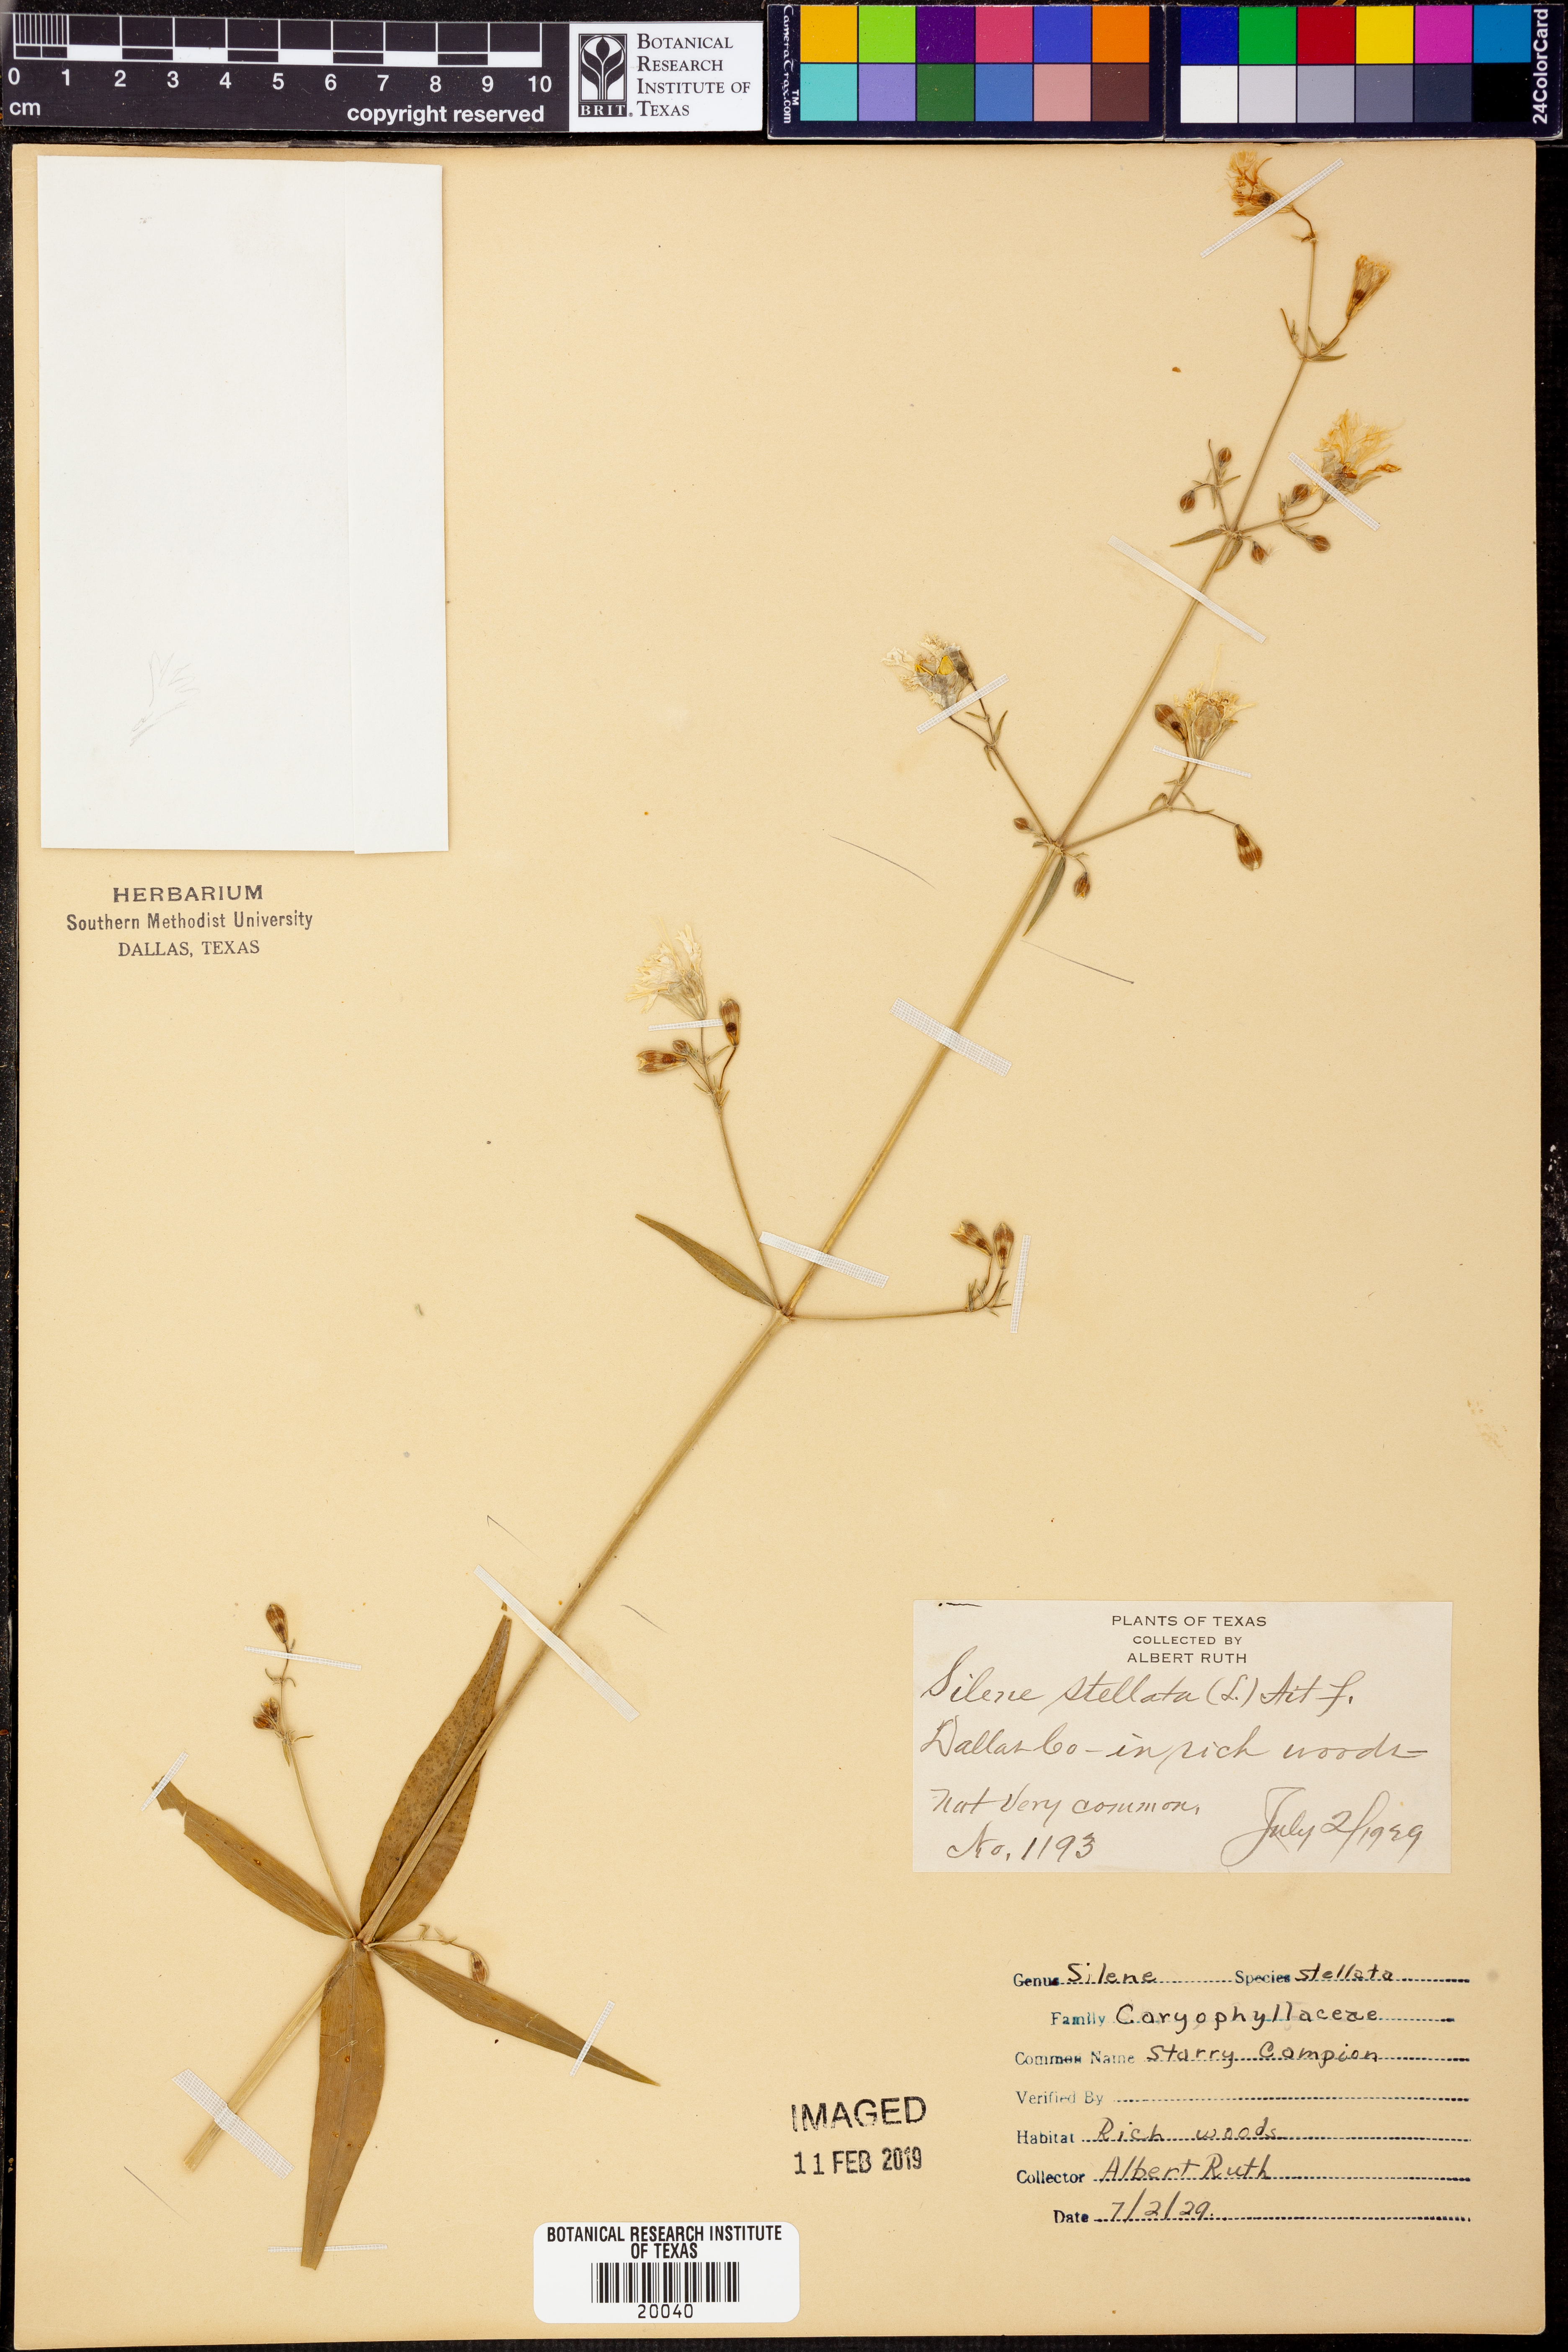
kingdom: Plantae
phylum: Tracheophyta
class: Magnoliopsida
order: Caryophyllales
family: Caryophyllaceae
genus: Silene
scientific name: Silene stellata
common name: Starry campion
